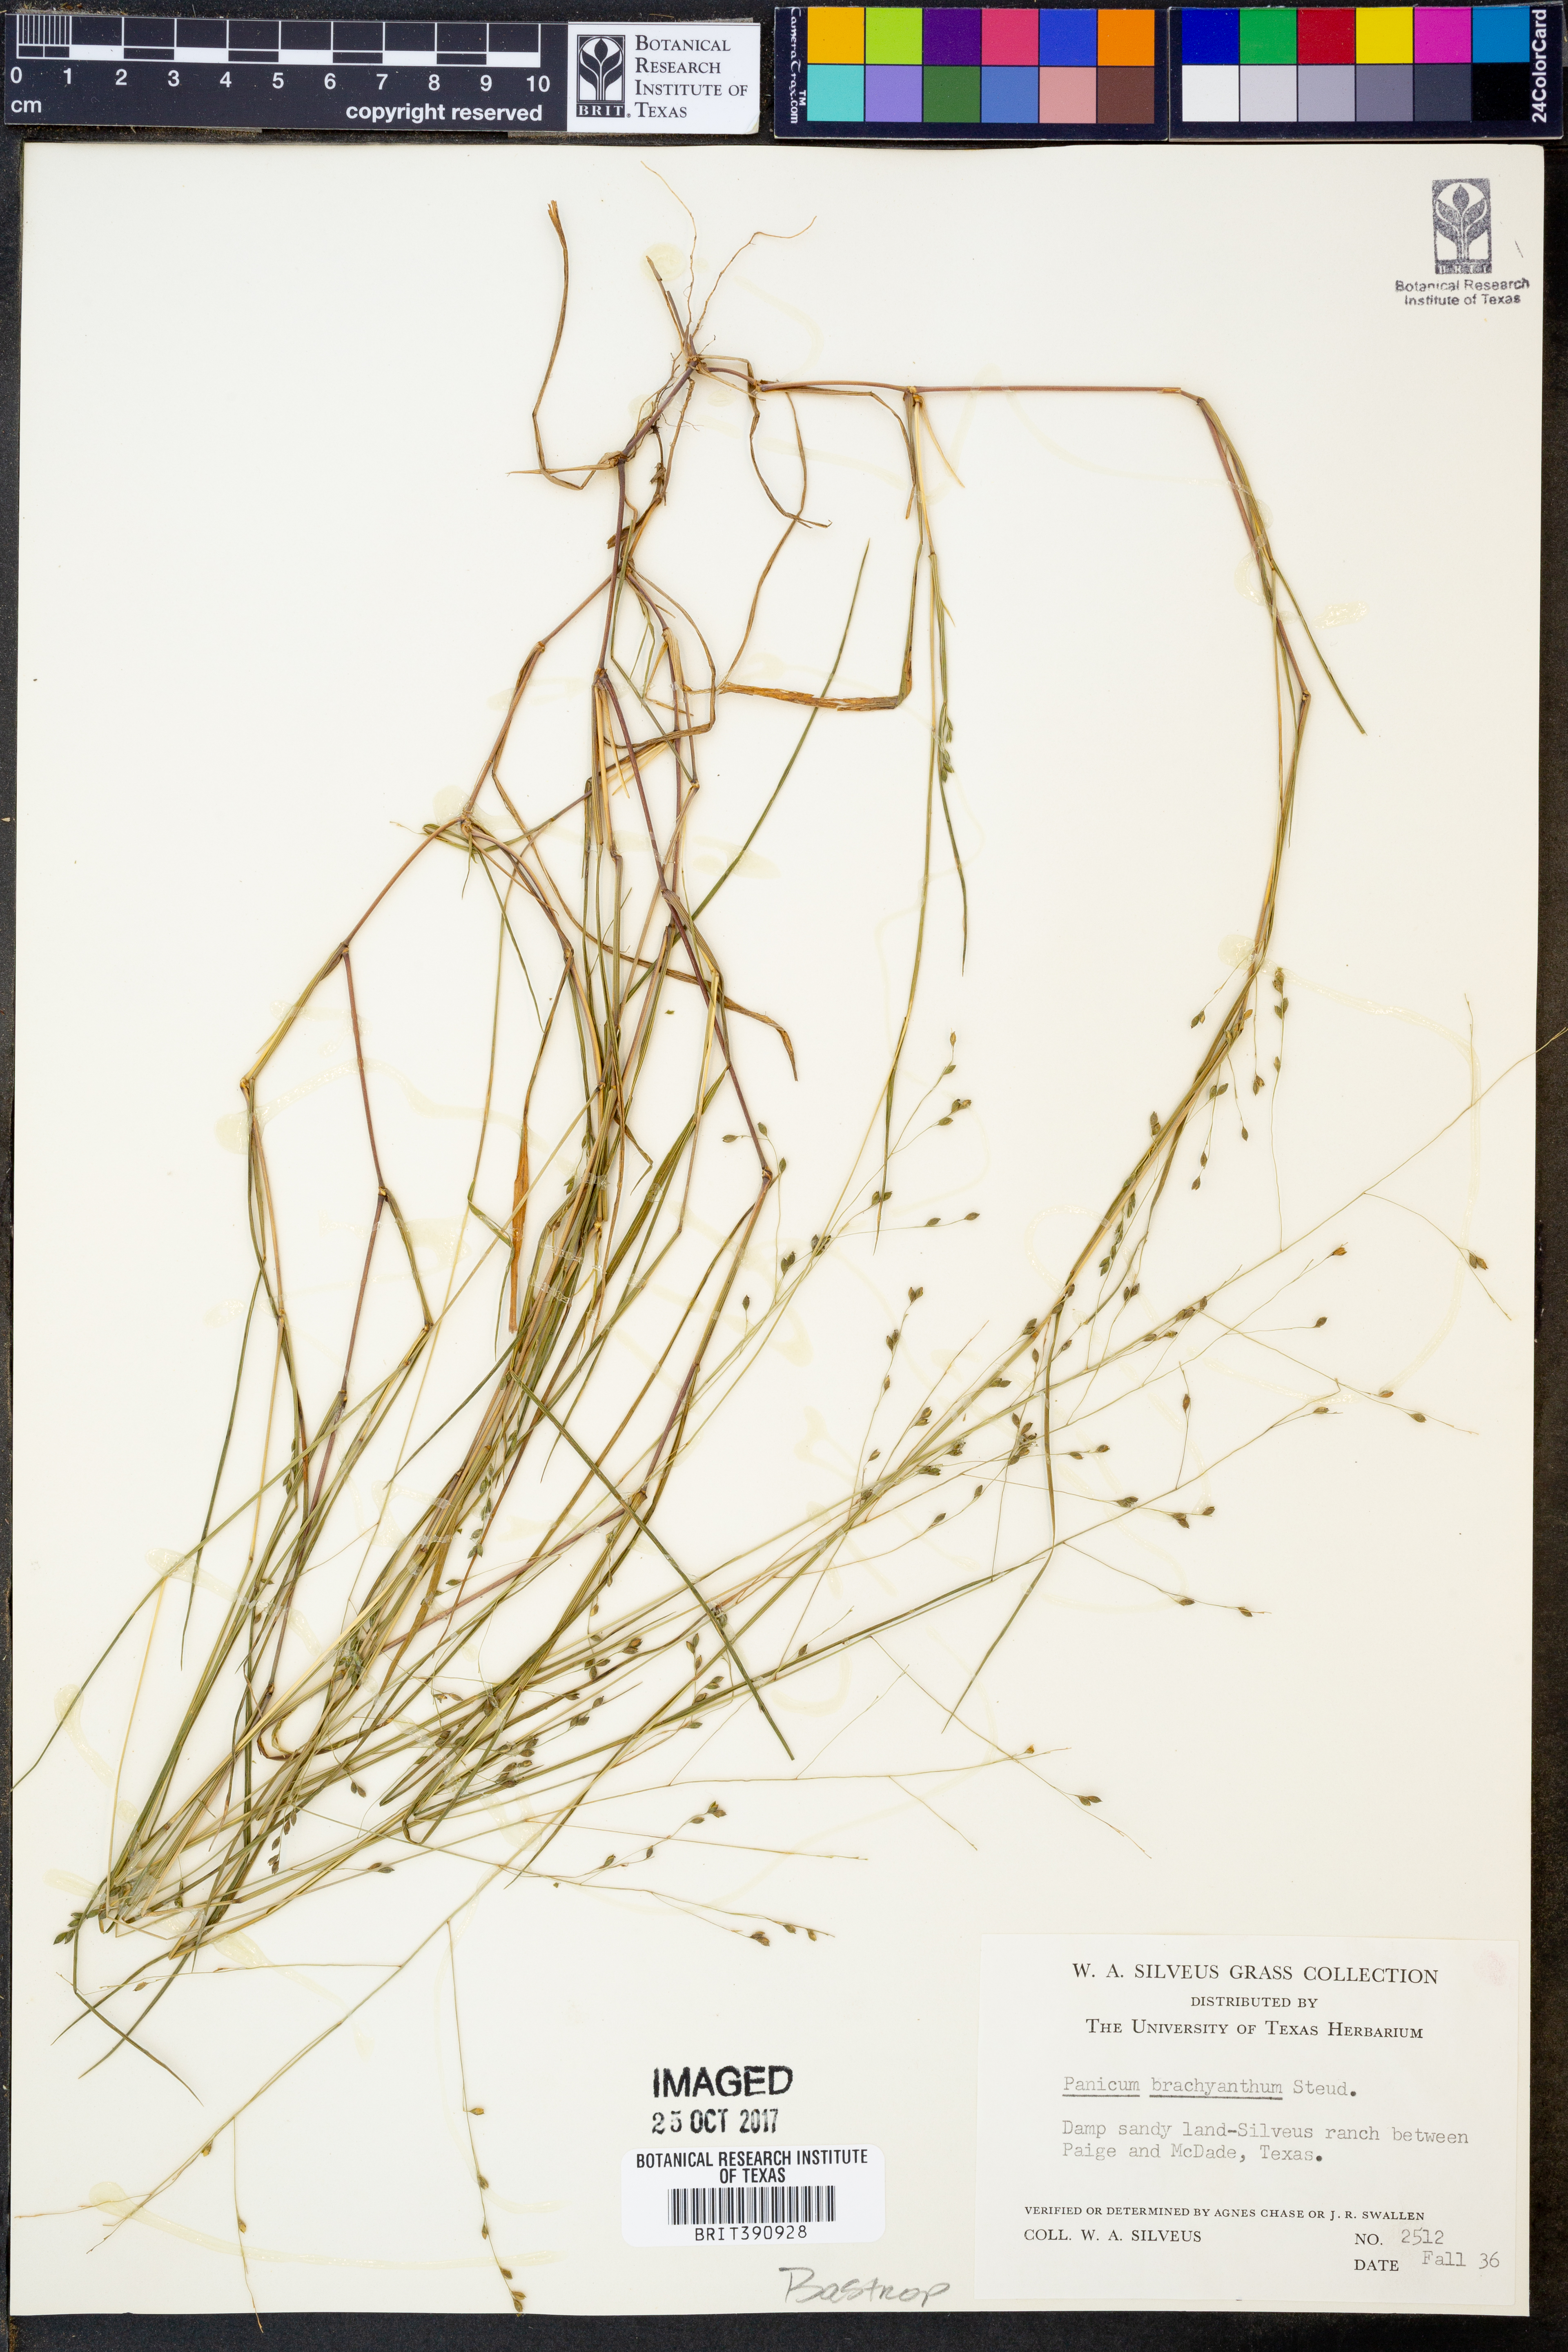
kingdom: Plantae
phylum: Tracheophyta
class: Liliopsida
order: Poales
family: Poaceae
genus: Kellochloa
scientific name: Kellochloa brachyantha
